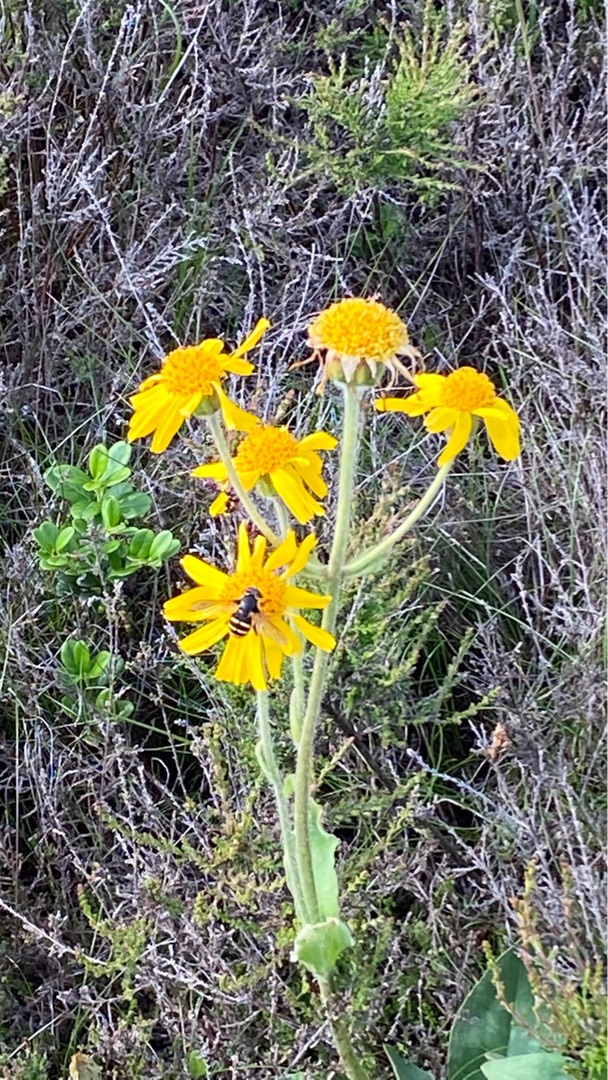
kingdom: Animalia
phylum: Arthropoda
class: Insecta
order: Diptera
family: Syrphidae
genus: Sericomyia
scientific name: Sericomyia silentis
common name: Tørve-silkesvirreflue
